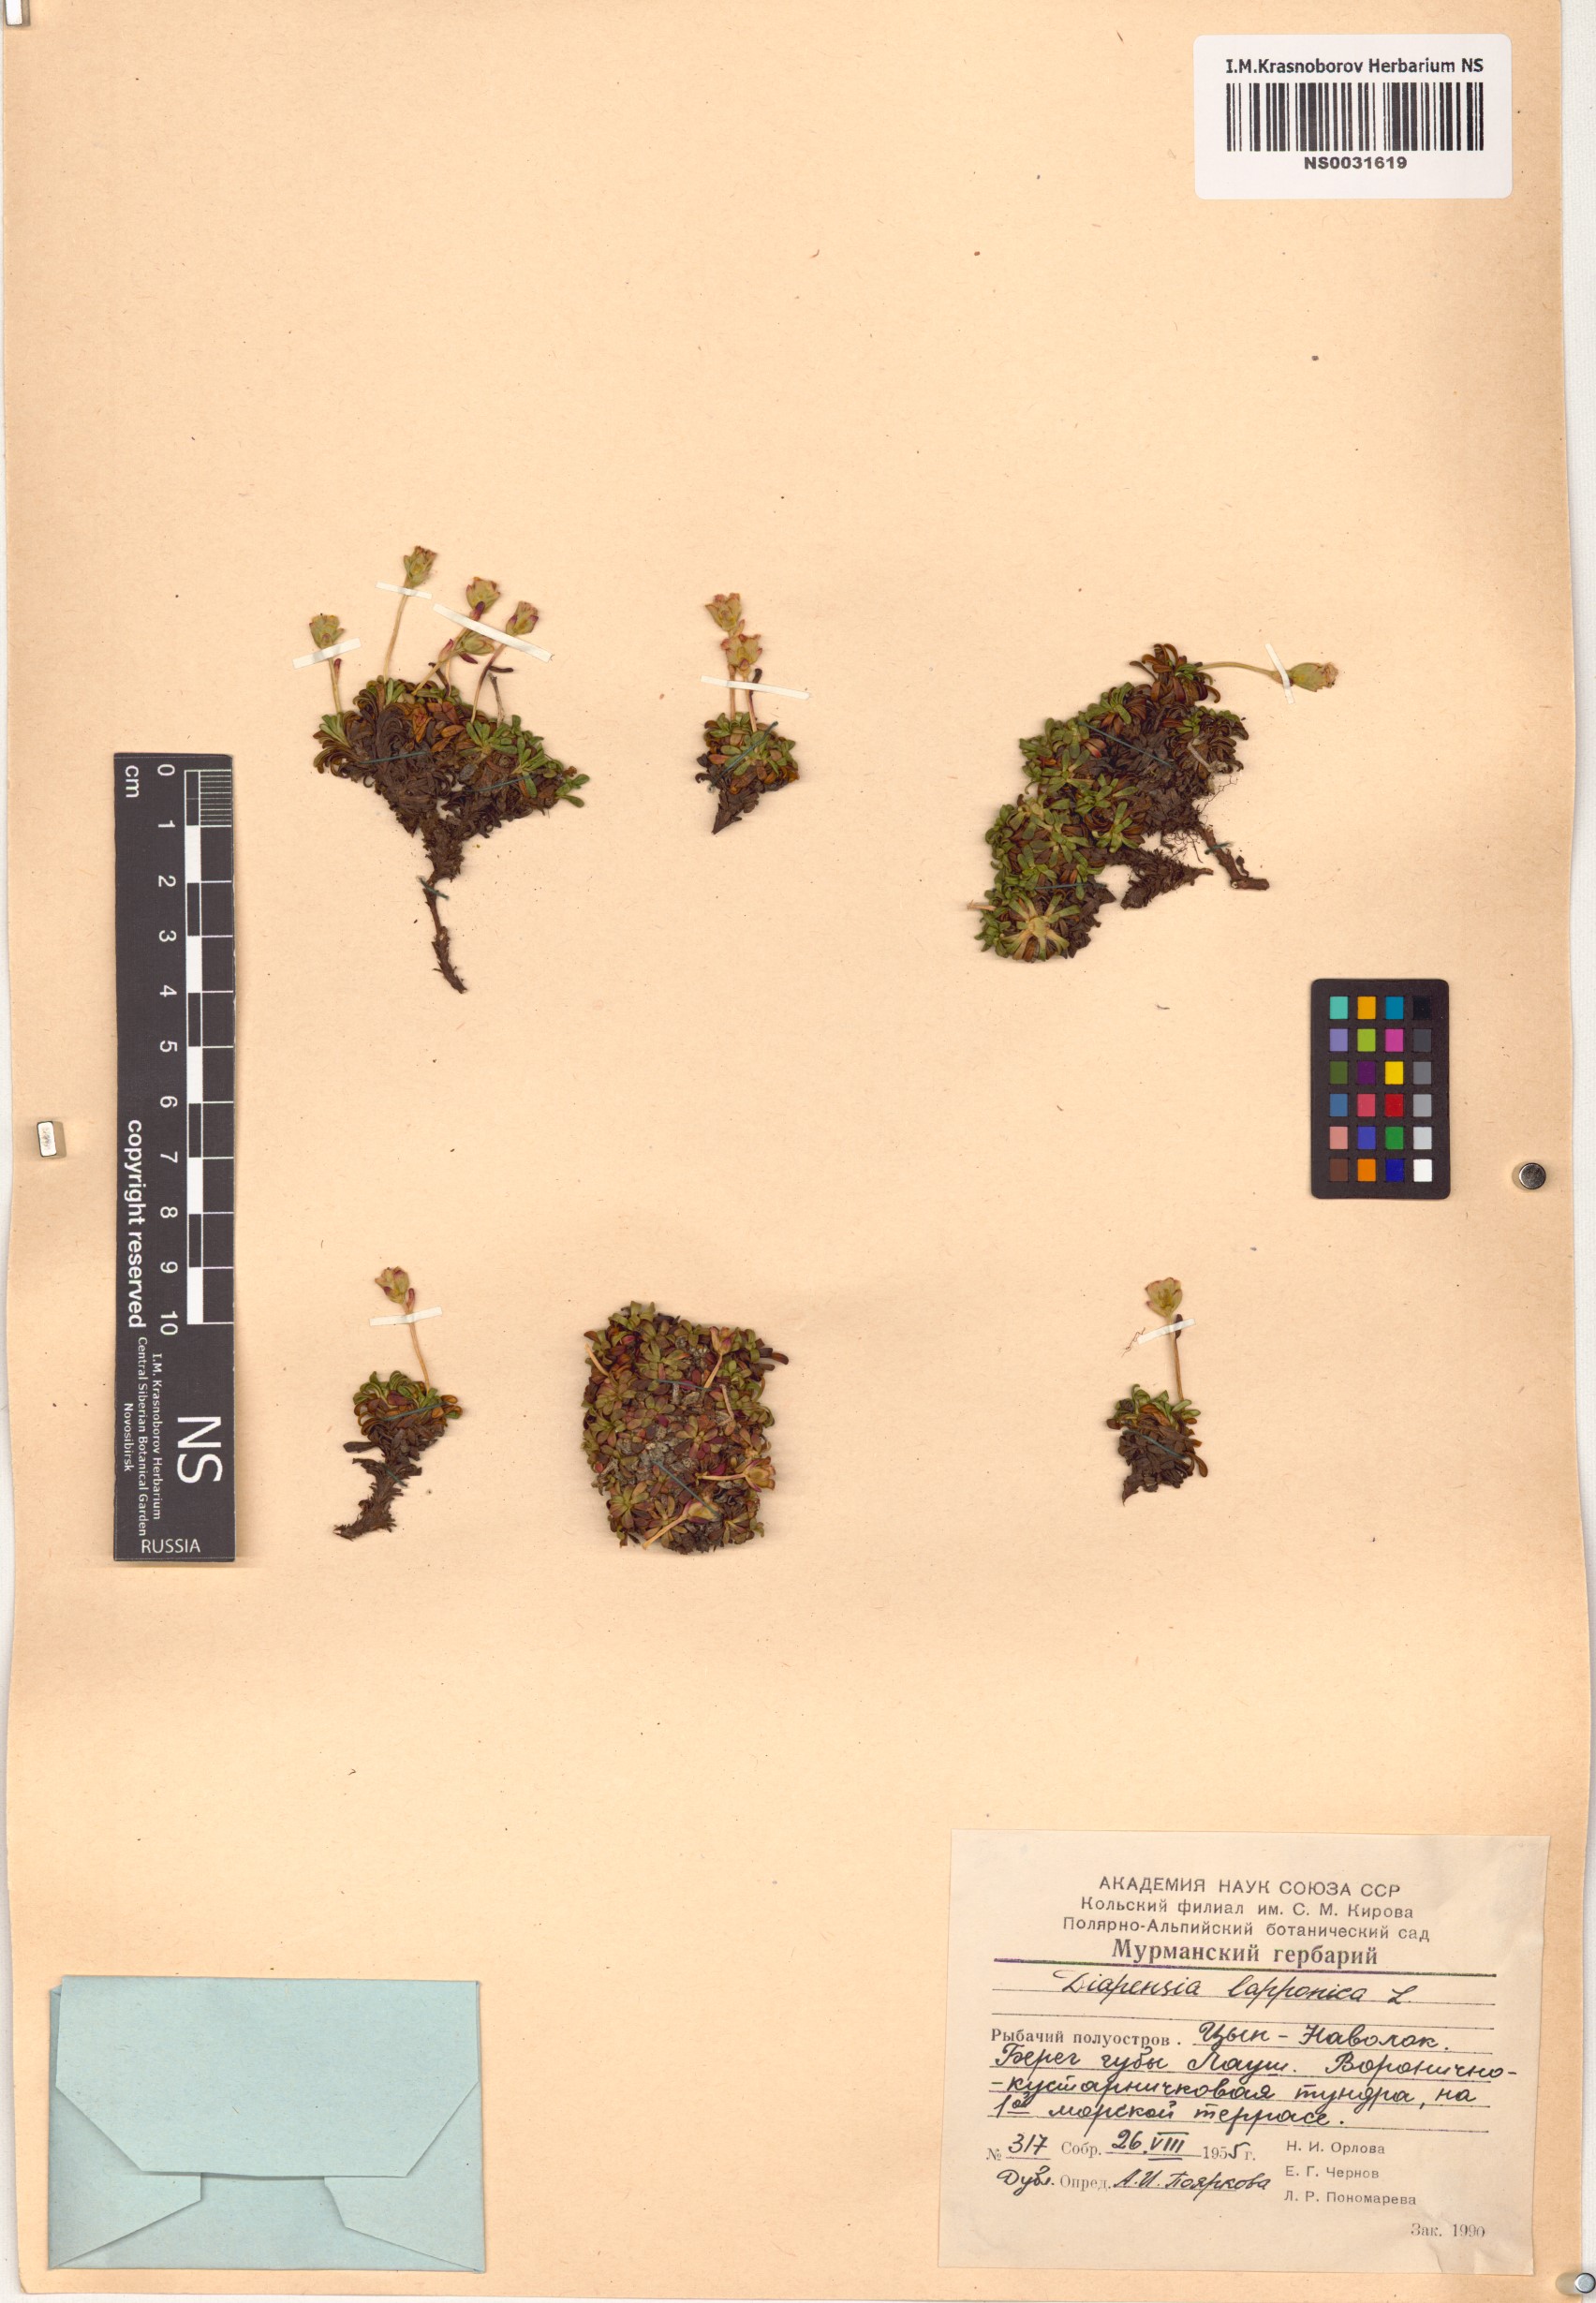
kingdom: Plantae
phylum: Tracheophyta
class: Magnoliopsida
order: Ericales
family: Diapensiaceae
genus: Diapensia
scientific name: Diapensia lapponica
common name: Diapensia
